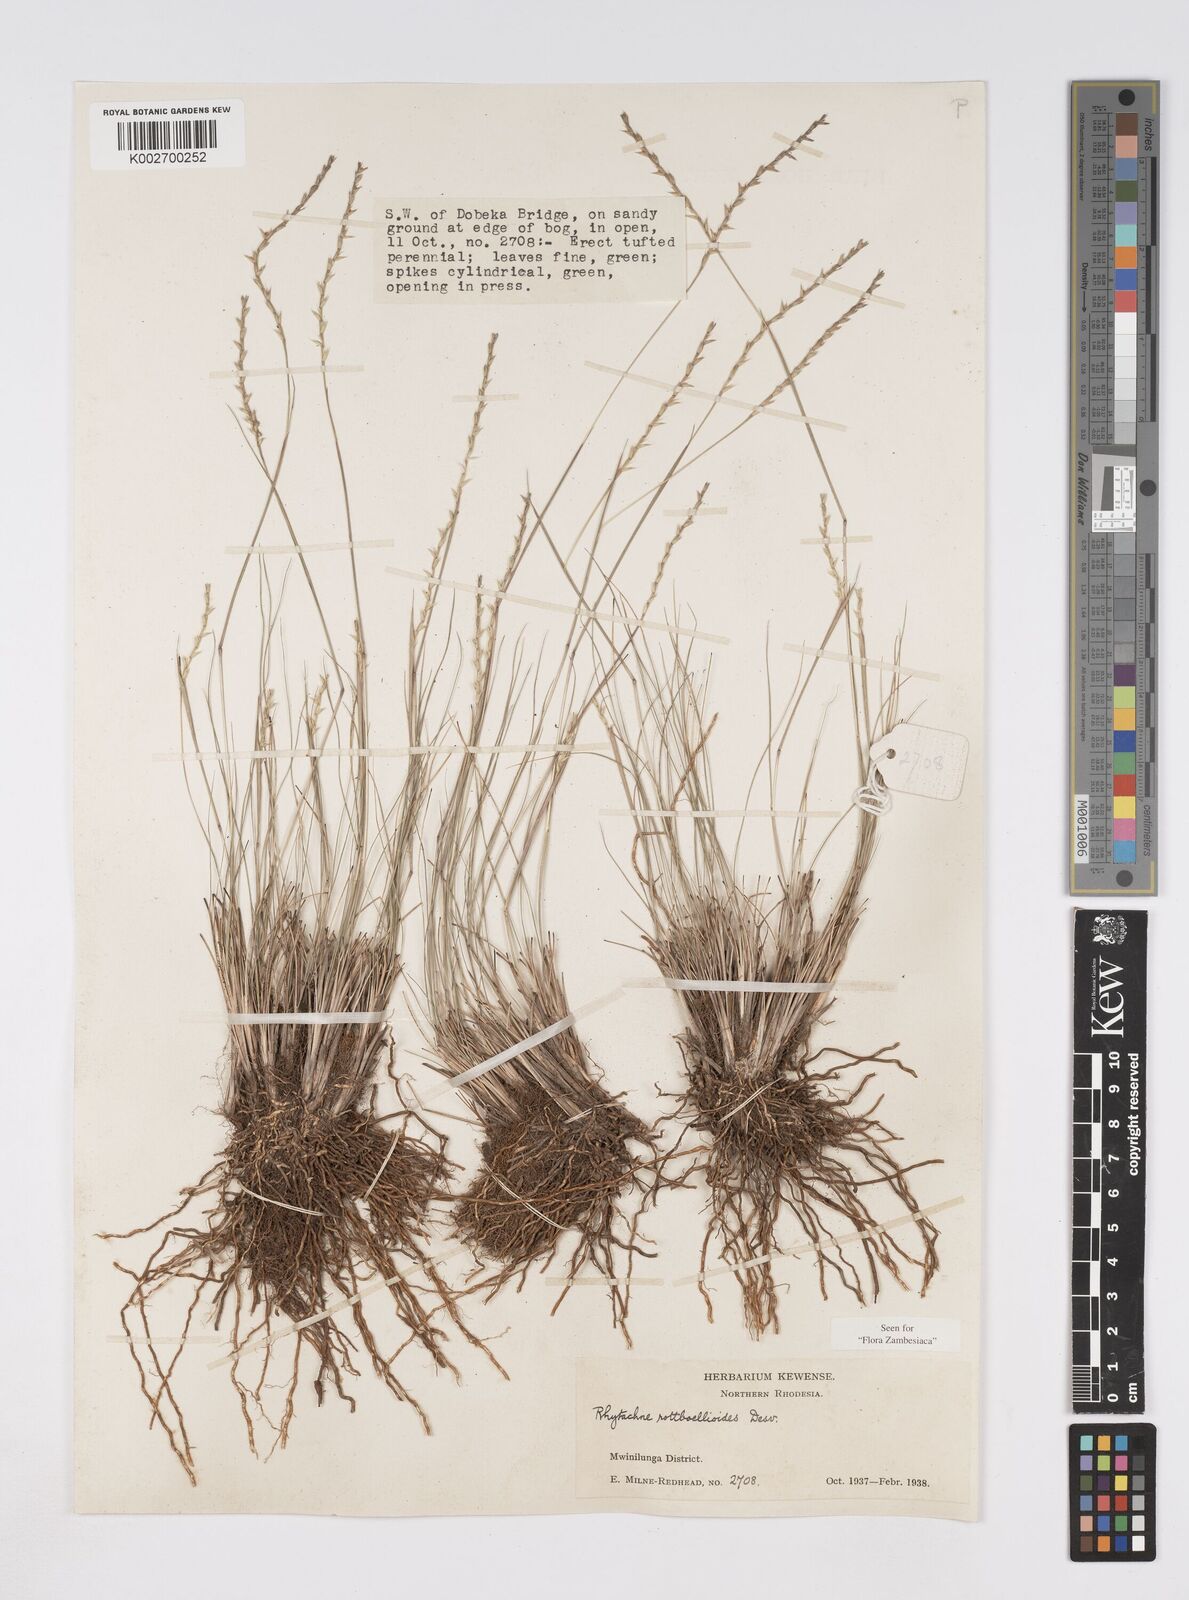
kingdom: Plantae
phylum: Tracheophyta
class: Liliopsida
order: Poales
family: Poaceae
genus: Rhytachne
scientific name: Rhytachne rottboellioides
